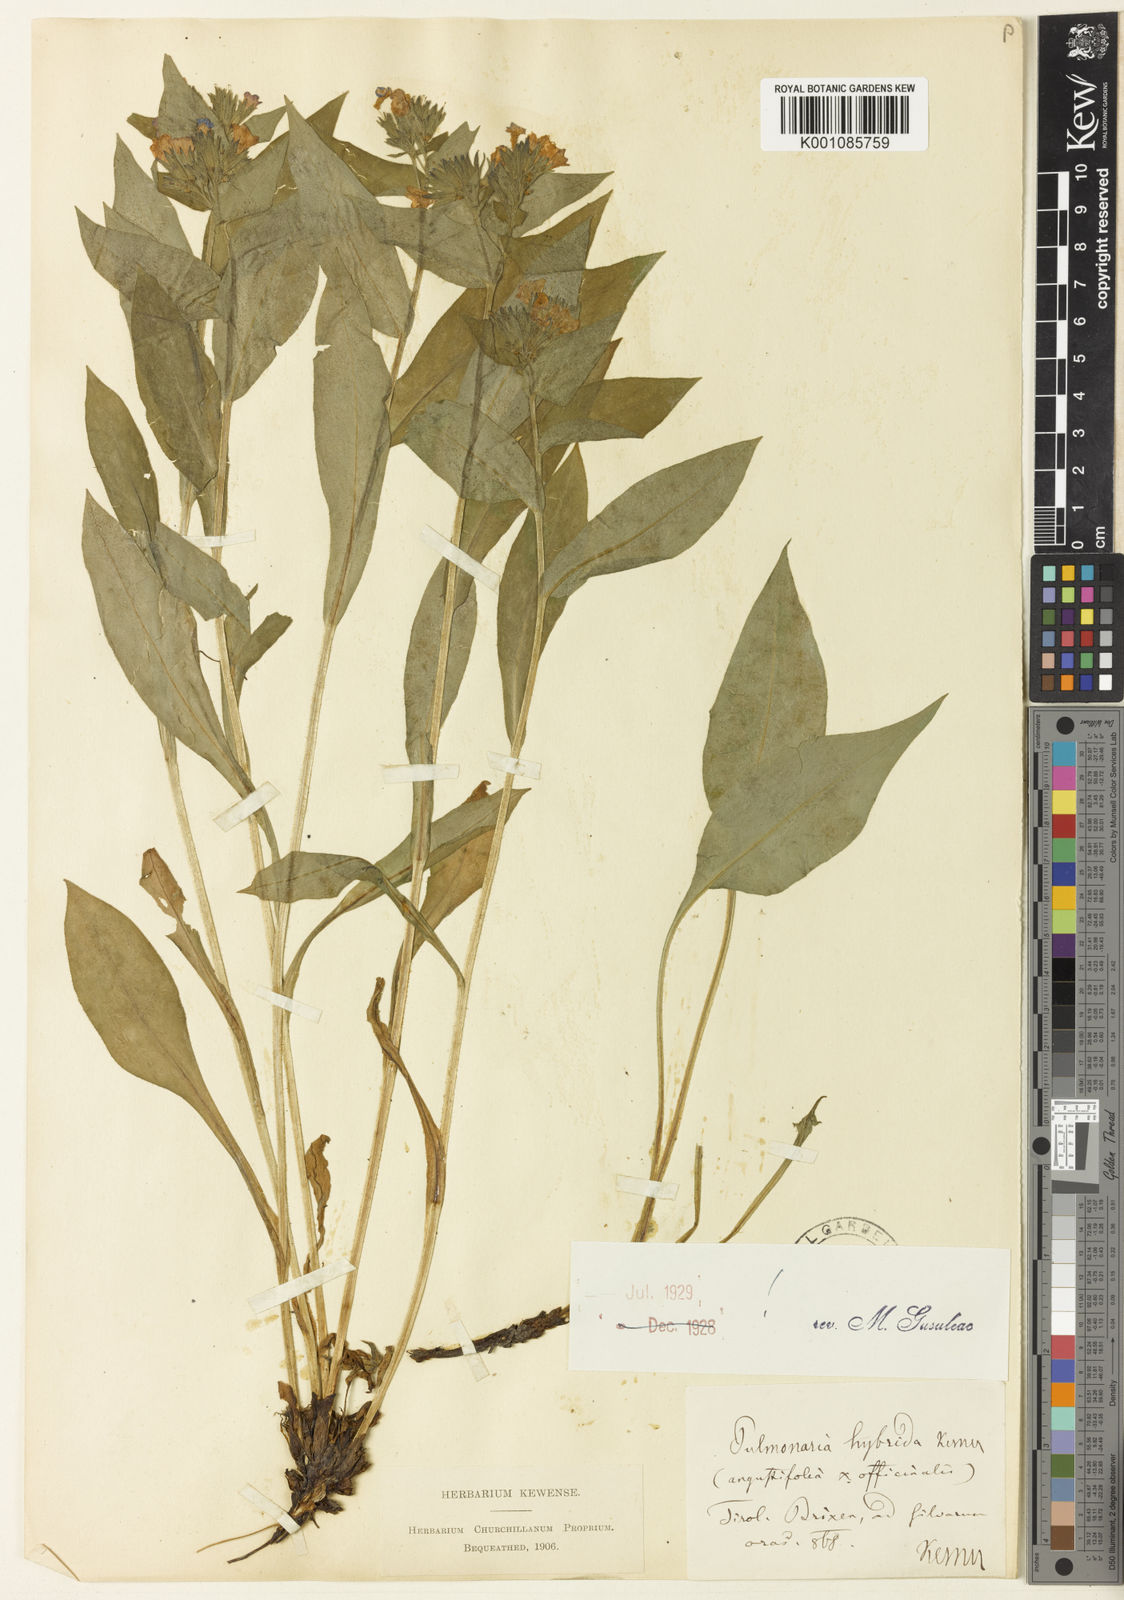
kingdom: Plantae
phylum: Tracheophyta
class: Magnoliopsida
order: Boraginales
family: Boraginaceae
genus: Pulmonaria
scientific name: Pulmonaria hybrida
